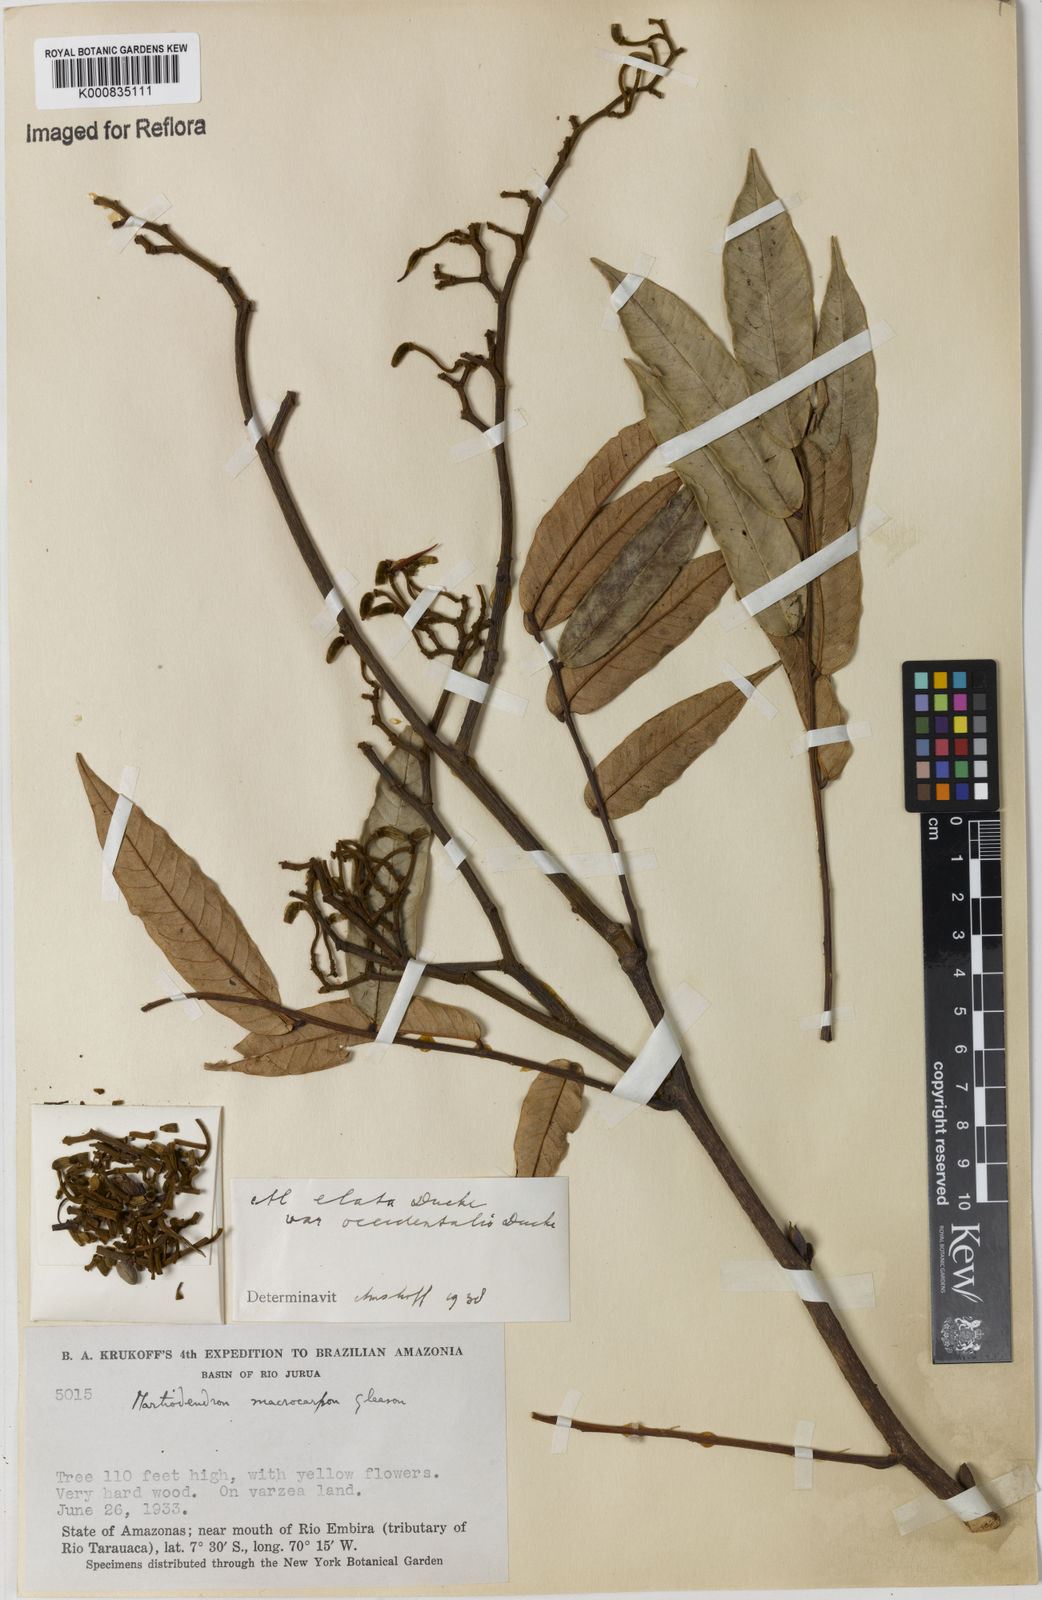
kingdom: Plantae
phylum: Tracheophyta
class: Magnoliopsida
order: Fabales
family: Fabaceae
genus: Martiodendron
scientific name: Martiodendron elatum
